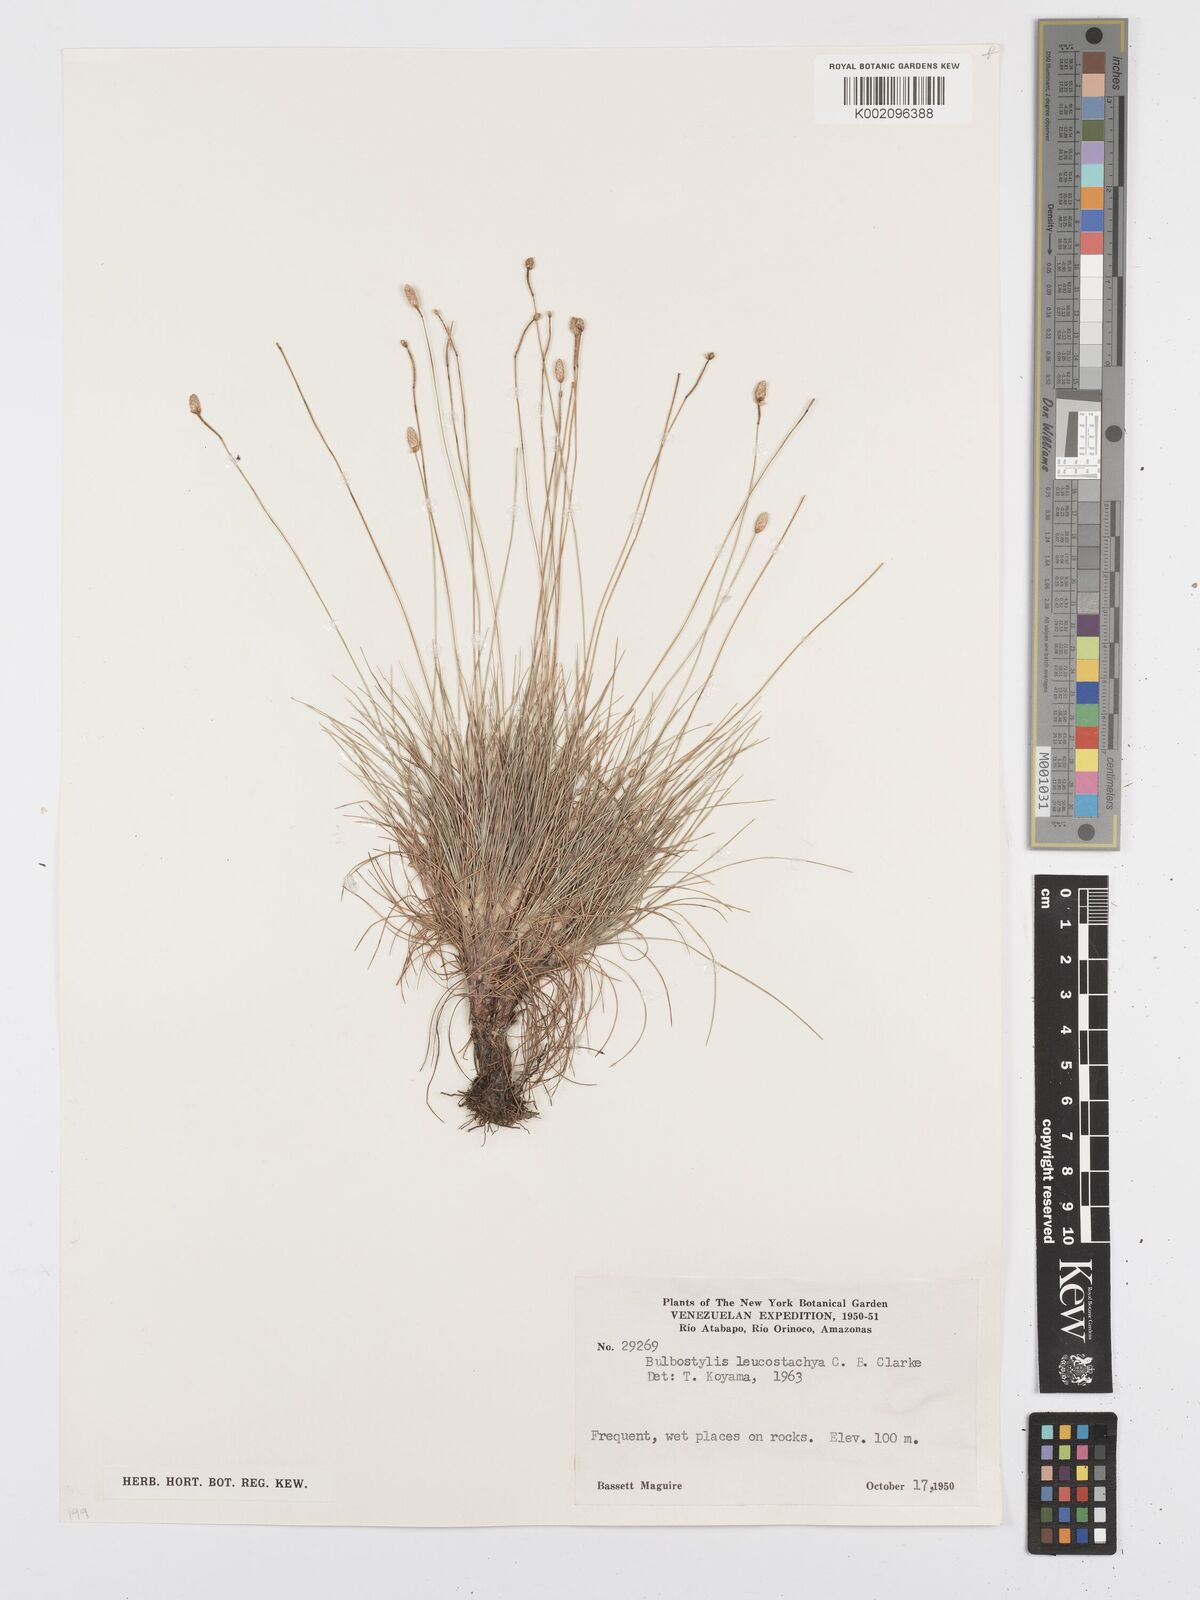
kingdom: Plantae
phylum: Tracheophyta
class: Liliopsida
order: Poales
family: Cyperaceae
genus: Bulbostylis
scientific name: Bulbostylis leucostachya
